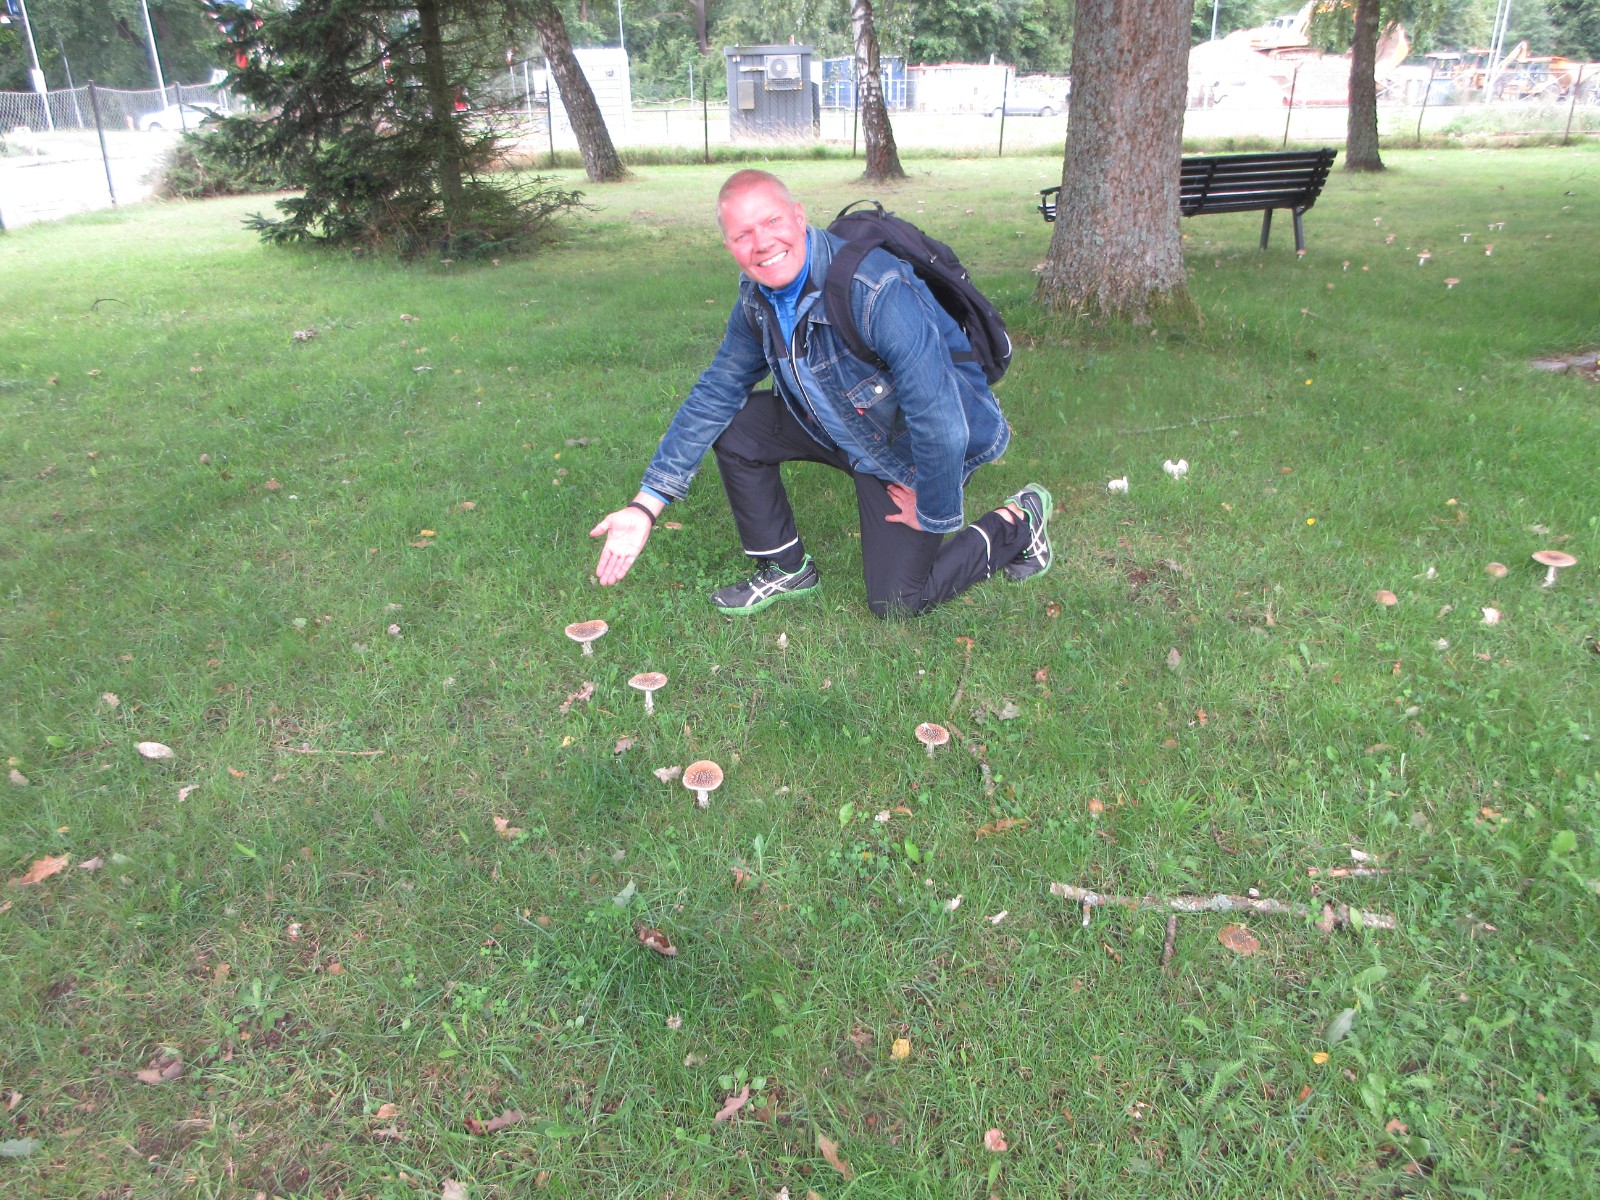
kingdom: Fungi
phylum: Basidiomycota
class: Agaricomycetes
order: Agaricales
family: Amanitaceae
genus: Amanita
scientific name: Amanita pantherina
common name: panter-fluesvamp
